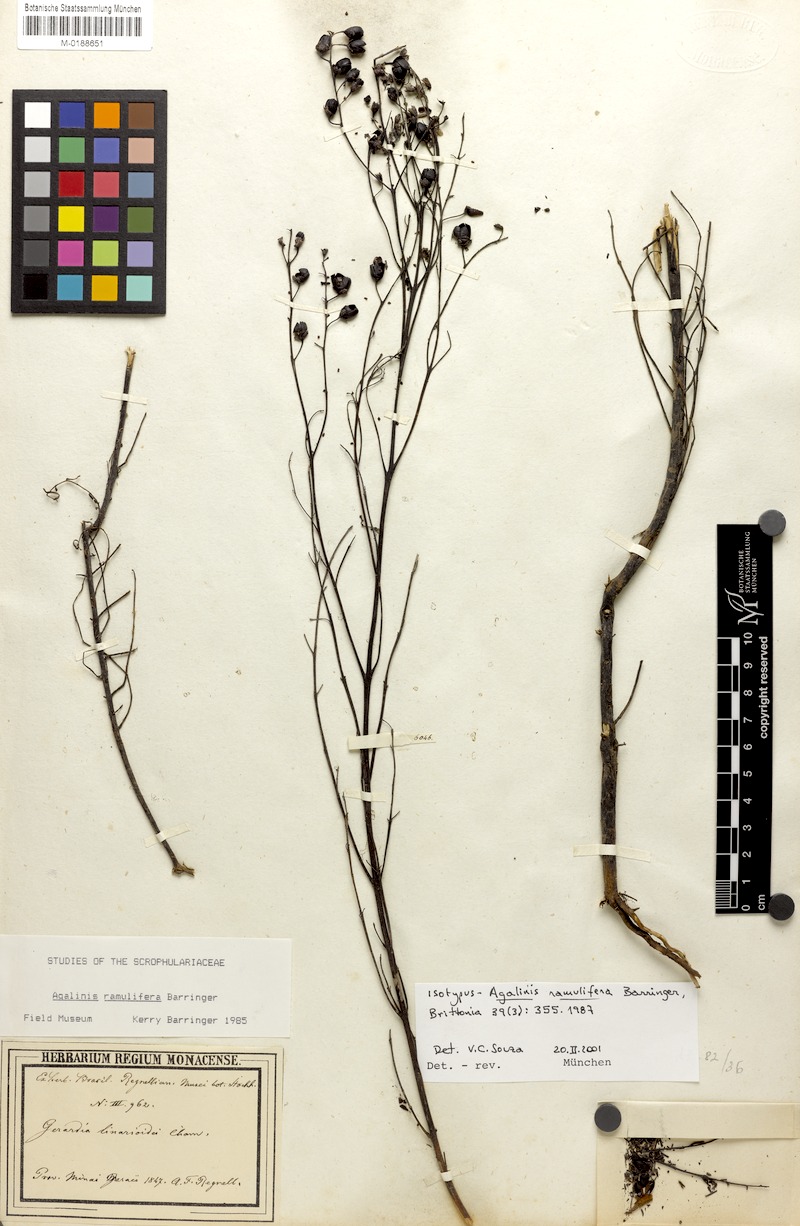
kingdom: Plantae
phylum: Tracheophyta
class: Magnoliopsida
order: Lamiales
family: Orobanchaceae
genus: Agalinis
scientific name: Agalinis ramulifera
